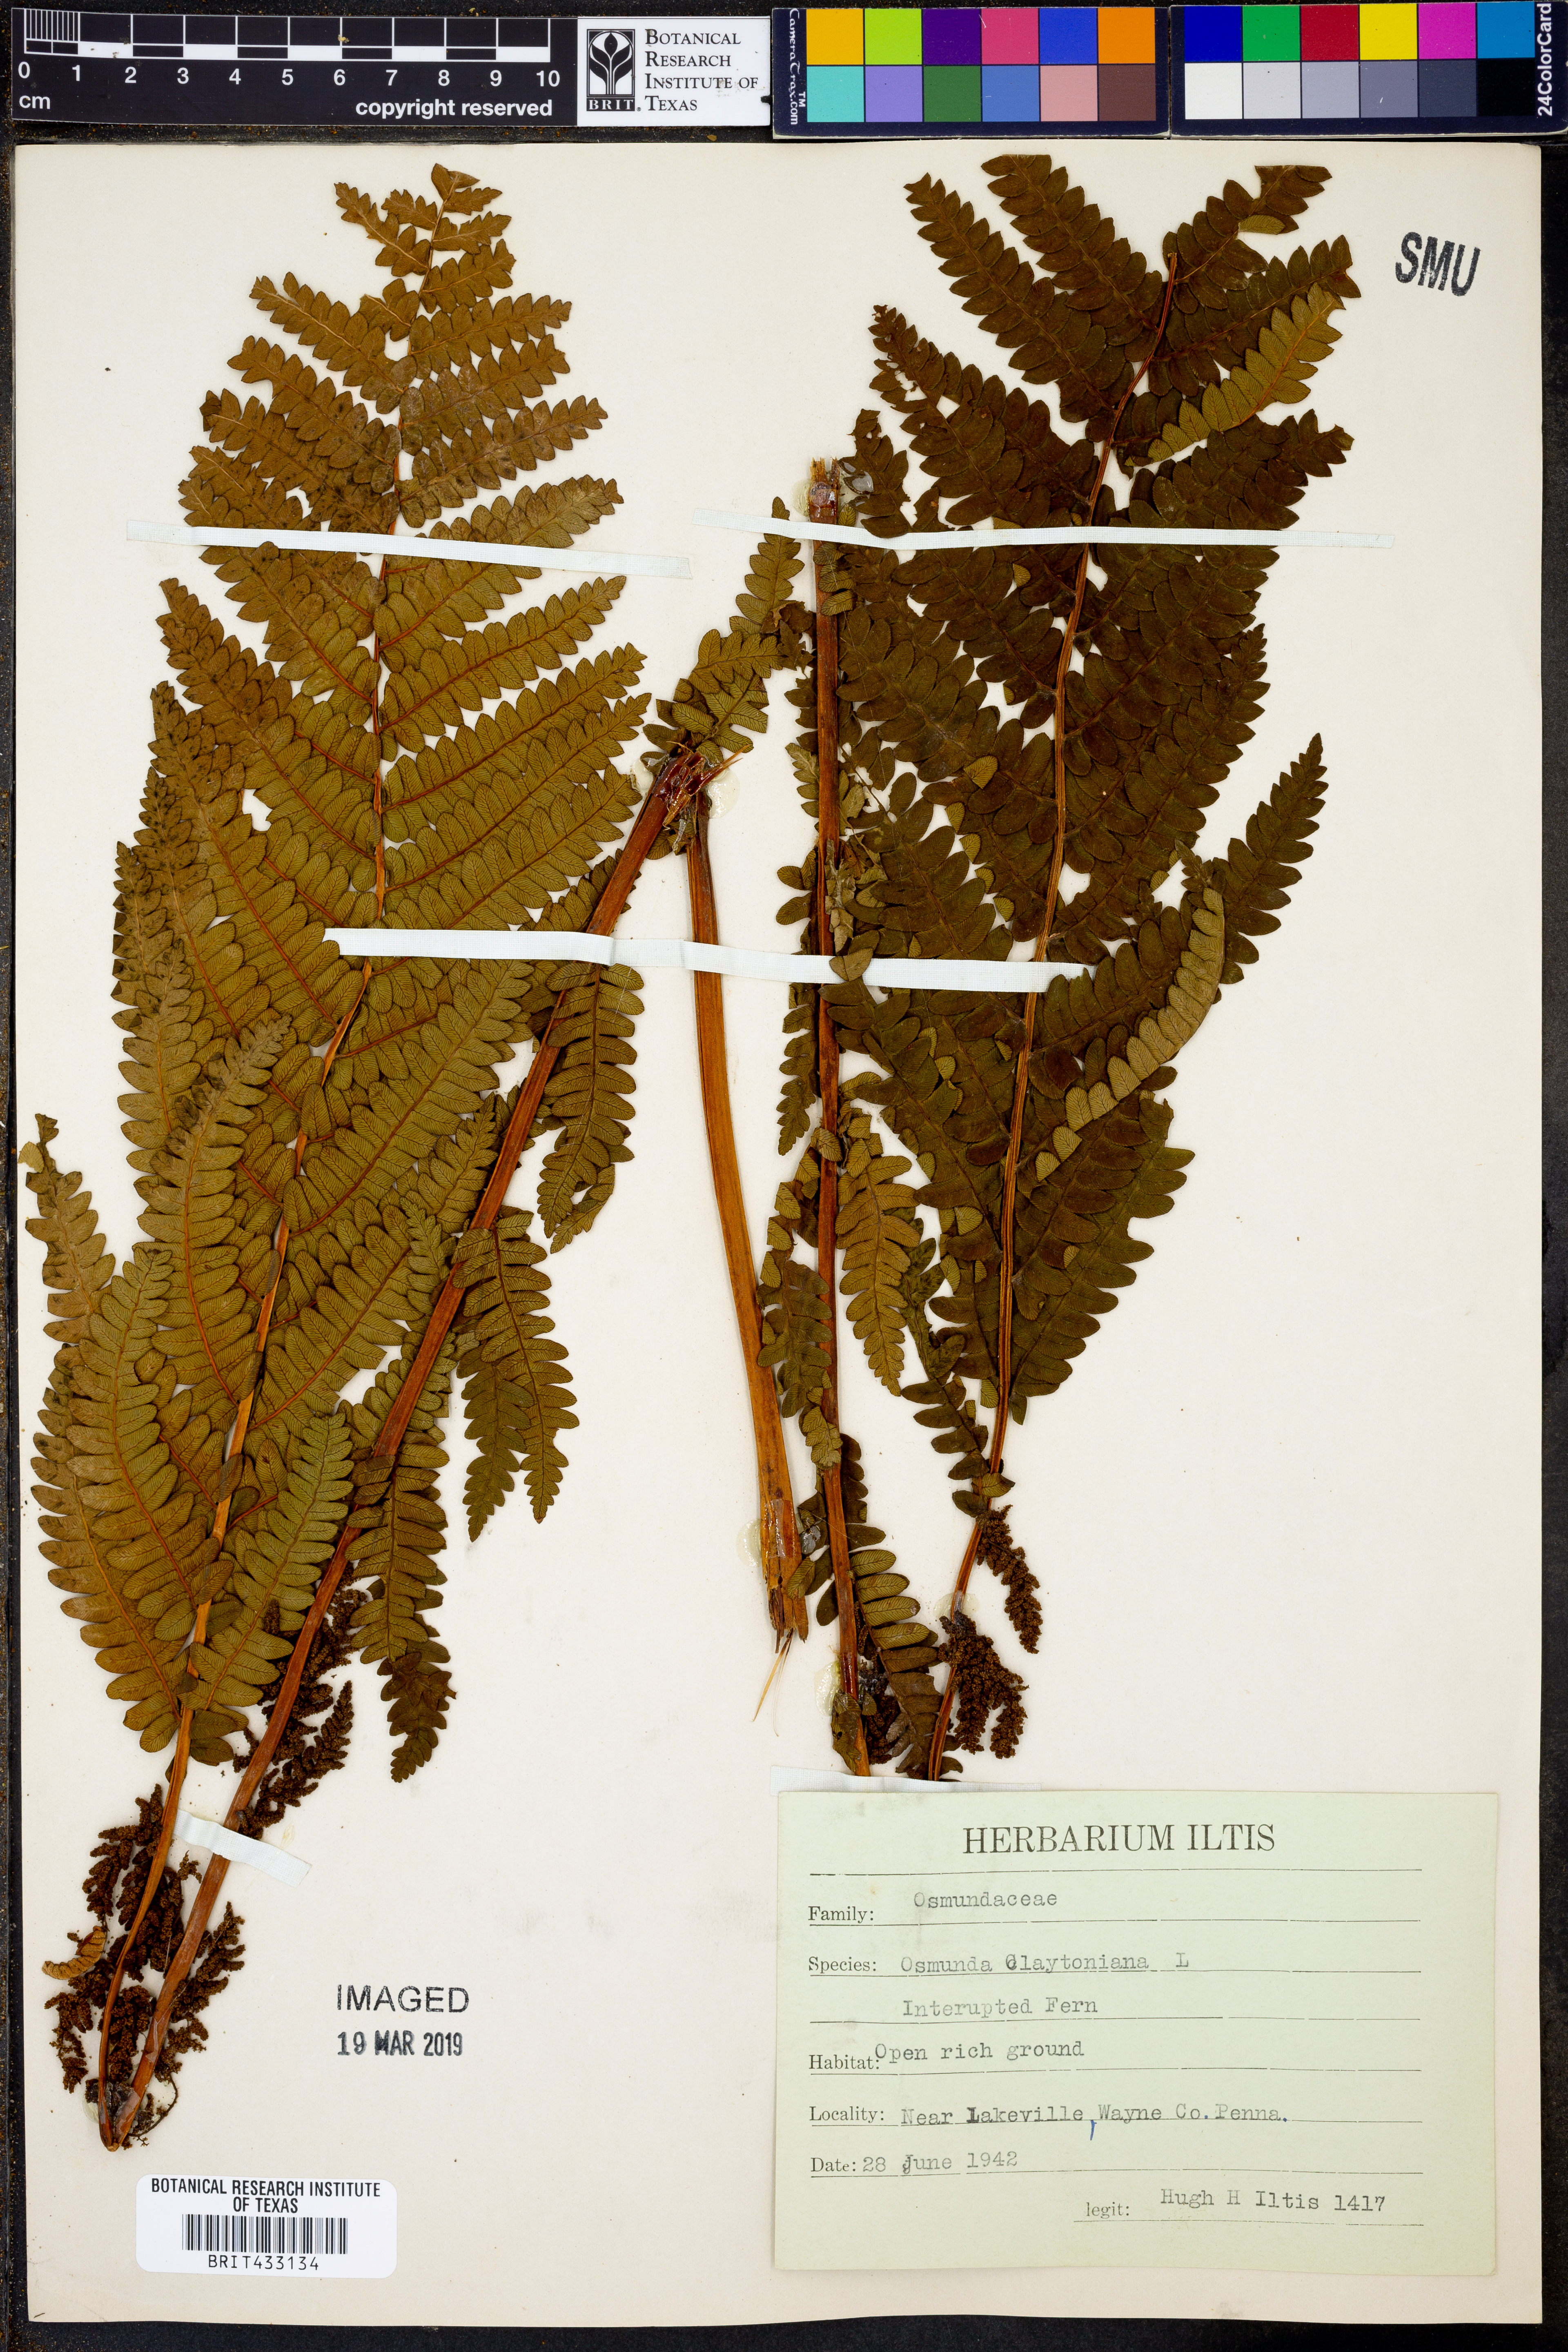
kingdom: Plantae
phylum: Tracheophyta
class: Polypodiopsida
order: Osmundales
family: Osmundaceae
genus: Claytosmunda
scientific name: Claytosmunda claytoniana
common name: Clayton's fern
